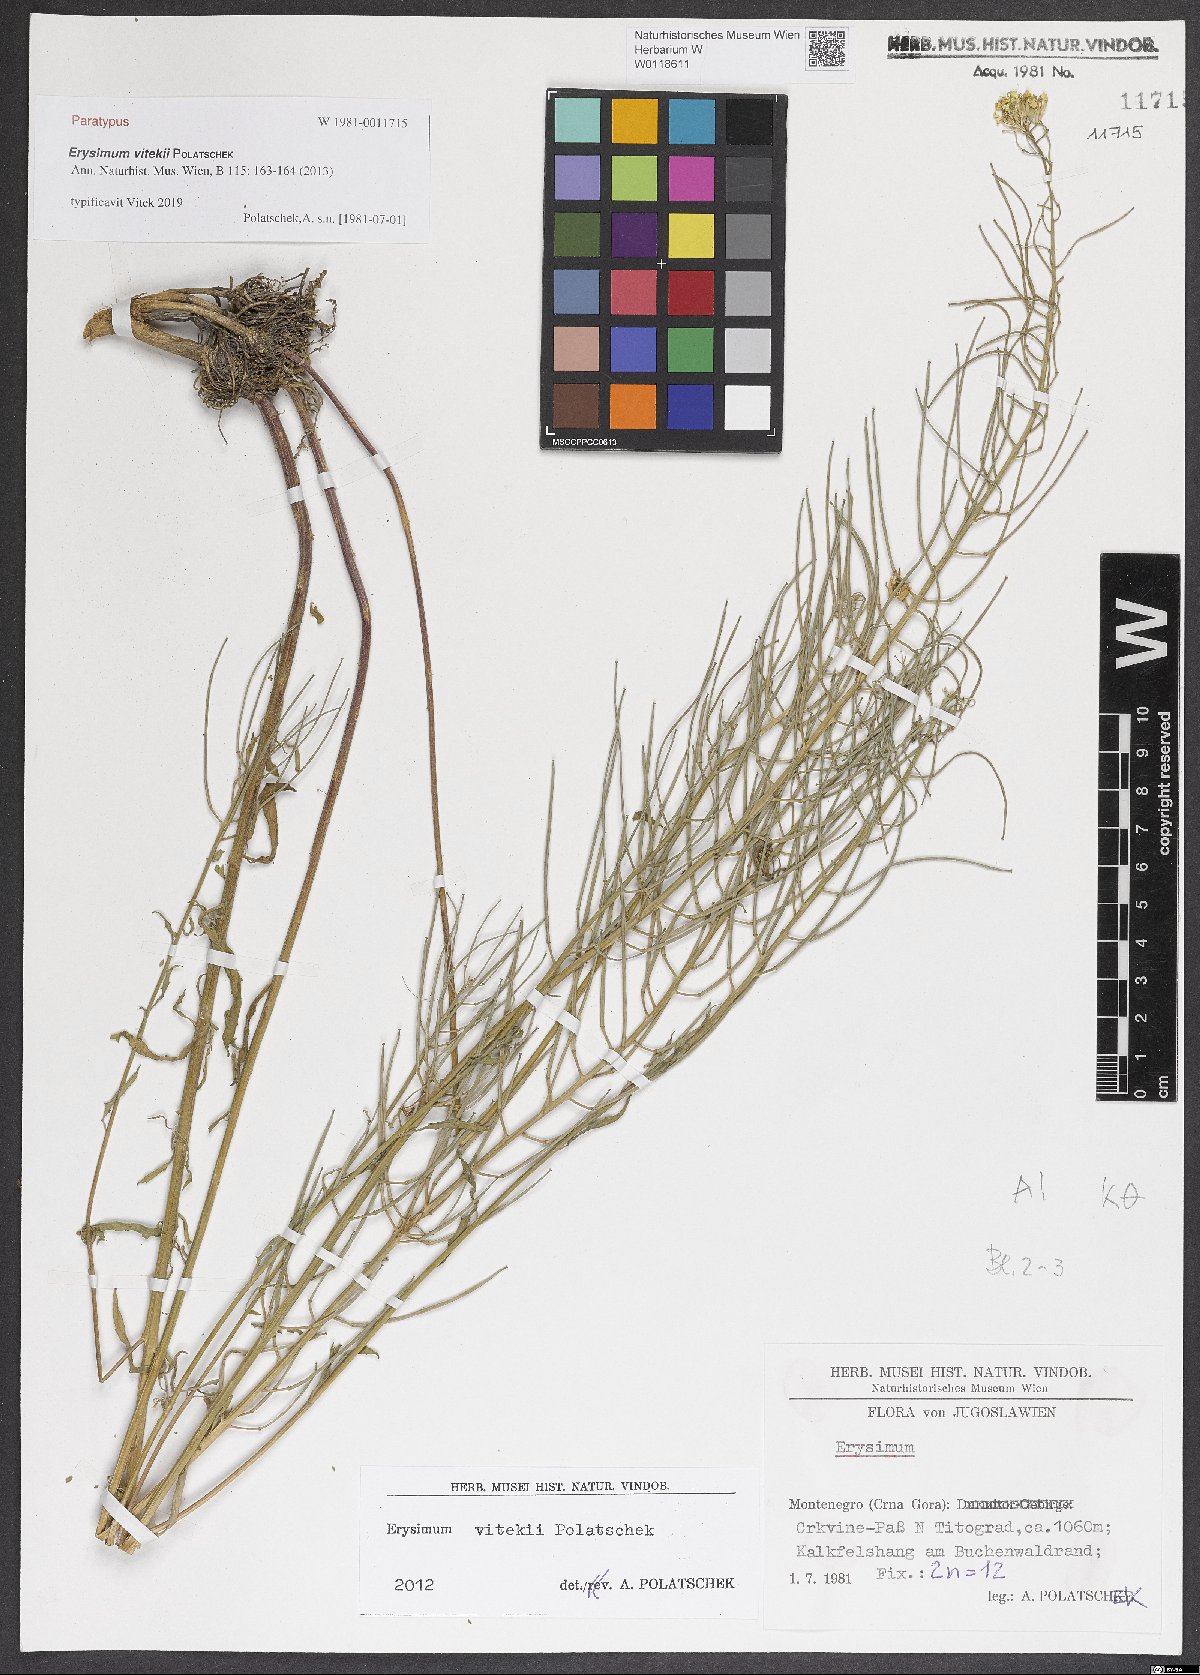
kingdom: Plantae
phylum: Tracheophyta
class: Magnoliopsida
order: Brassicales
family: Brassicaceae
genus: Erysimum
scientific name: Erysimum vitekii
